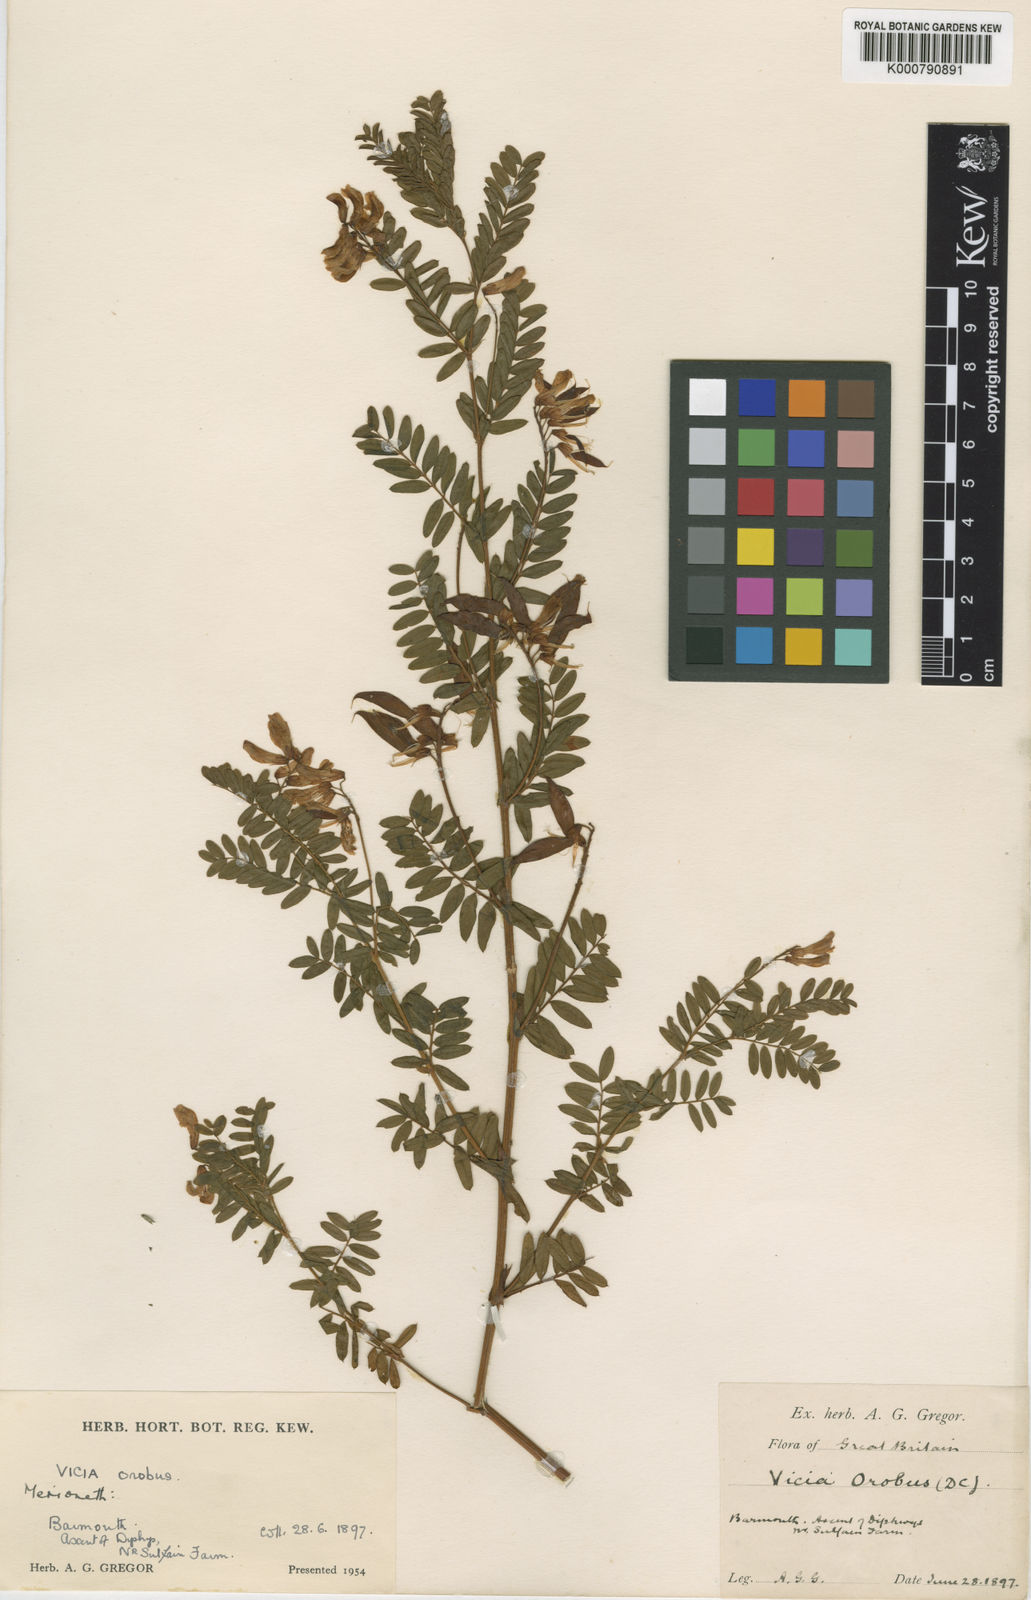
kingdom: Plantae
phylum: Tracheophyta
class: Magnoliopsida
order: Fabales
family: Fabaceae
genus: Vicia
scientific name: Vicia orobus
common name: Wood bitter-vetch
